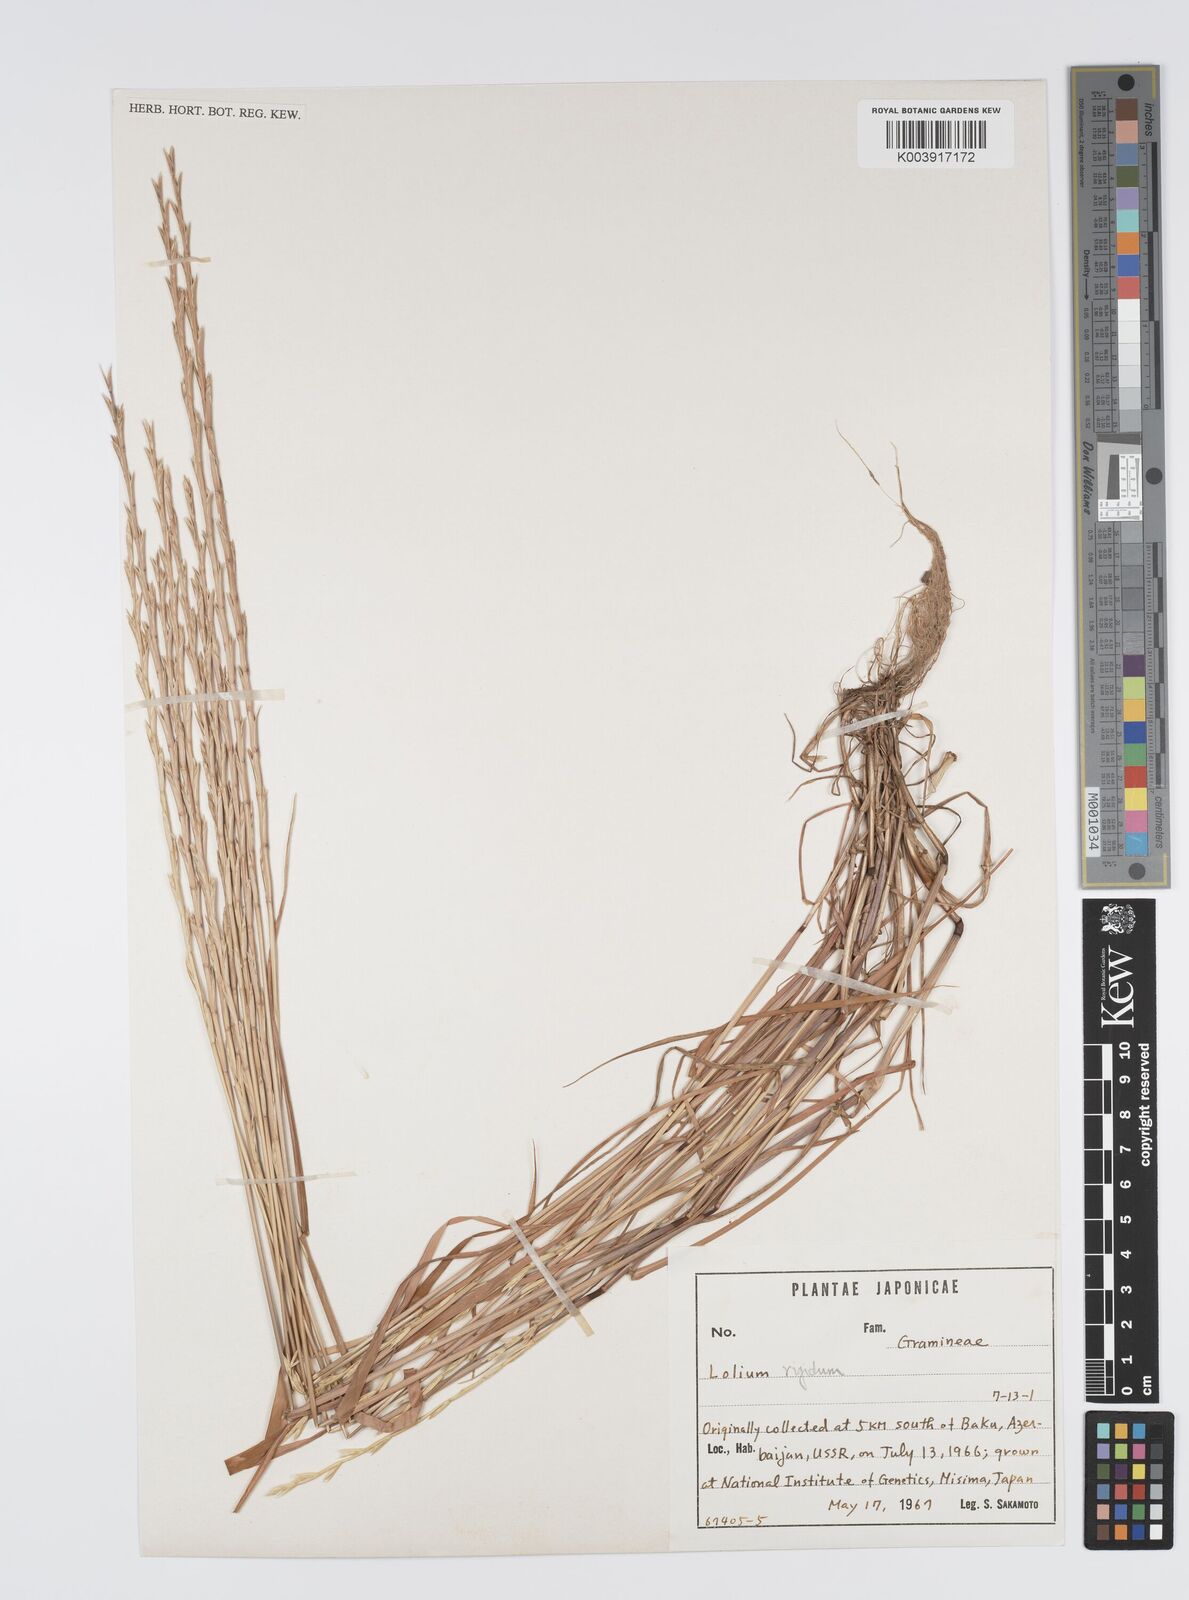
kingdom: Plantae
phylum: Tracheophyta
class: Liliopsida
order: Poales
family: Poaceae
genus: Lolium
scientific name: Lolium rigidum
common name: Wimmera ryegrass
